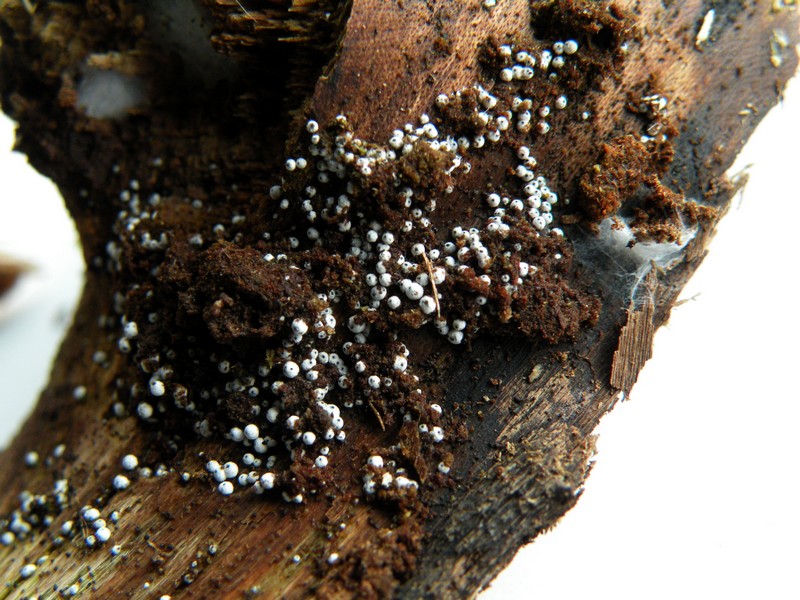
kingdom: Fungi
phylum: Ascomycota
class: Sordariomycetes
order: Sordariales
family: Lasiosphaeriaceae
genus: Lasiosphaeria
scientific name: Lasiosphaeria ovina
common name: fåre-kernesvamp
